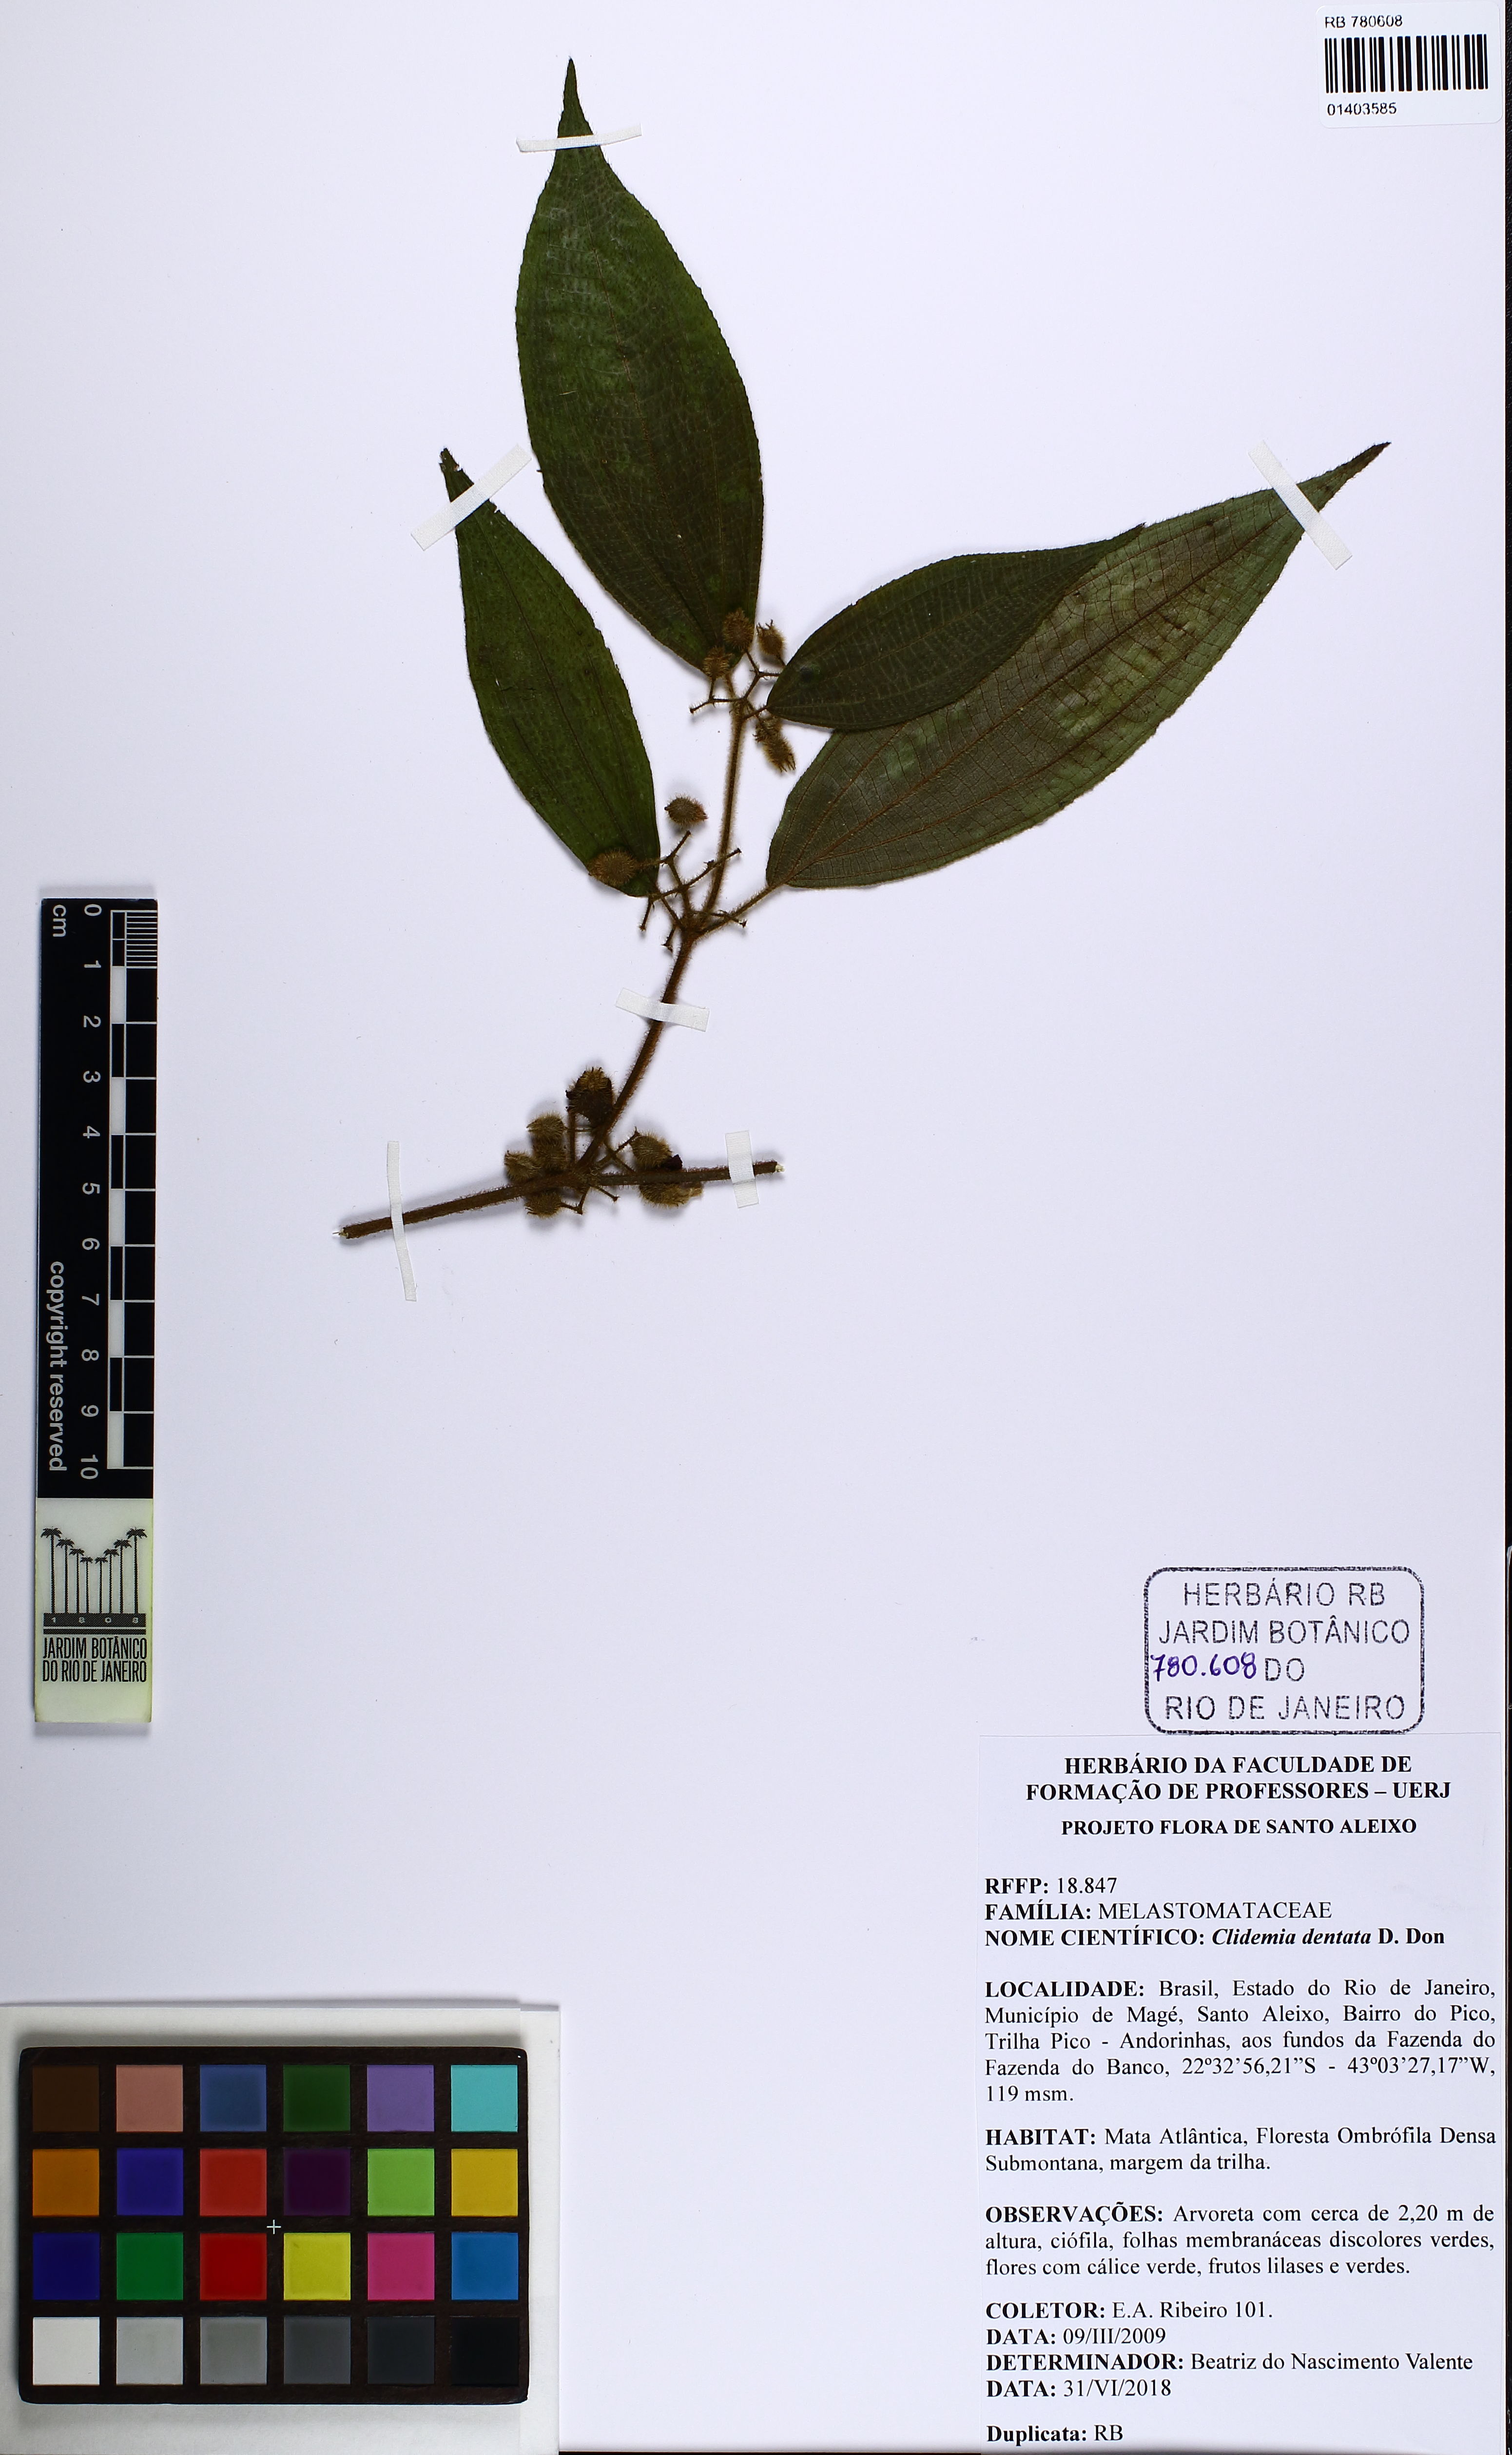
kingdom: Plantae
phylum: Tracheophyta
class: Magnoliopsida
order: Myrtales
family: Melastomataceae
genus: Miconia
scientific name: Miconia dentata
